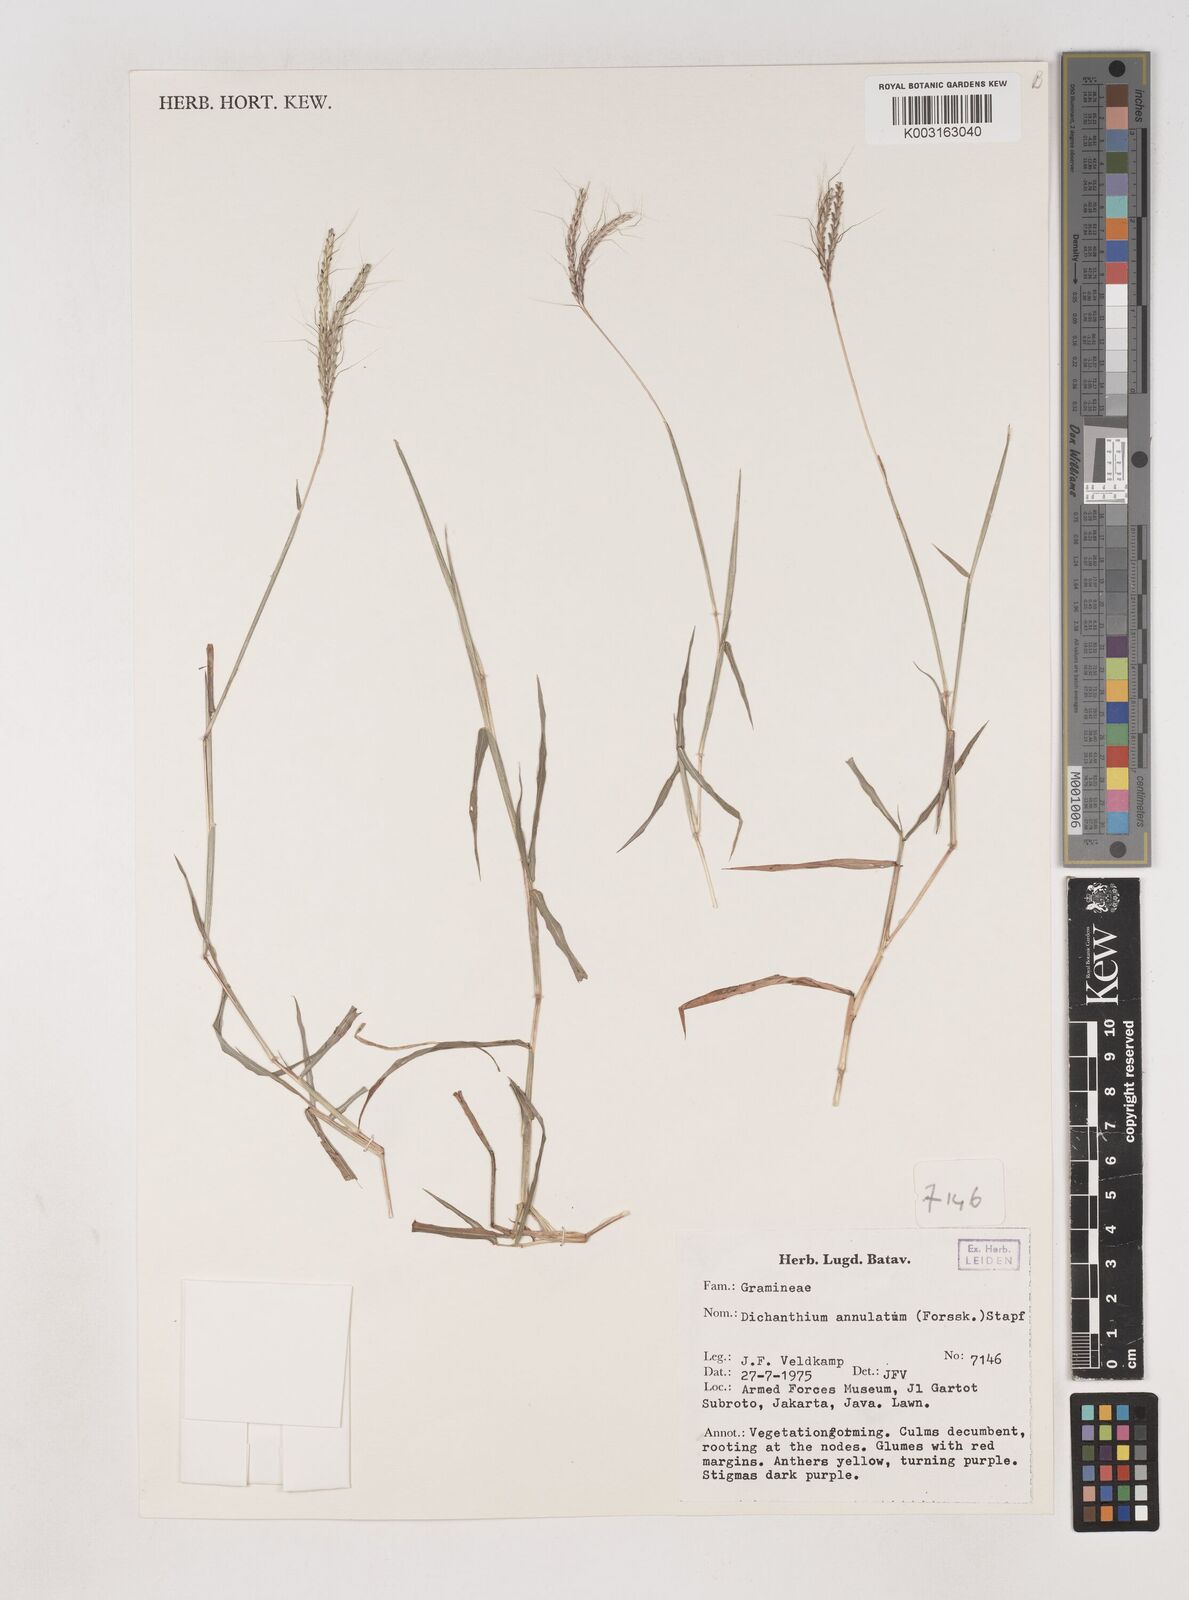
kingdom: Plantae
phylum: Tracheophyta
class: Liliopsida
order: Poales
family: Poaceae
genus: Dichanthium
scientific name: Dichanthium annulatum
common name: Kleberg's bluestem
